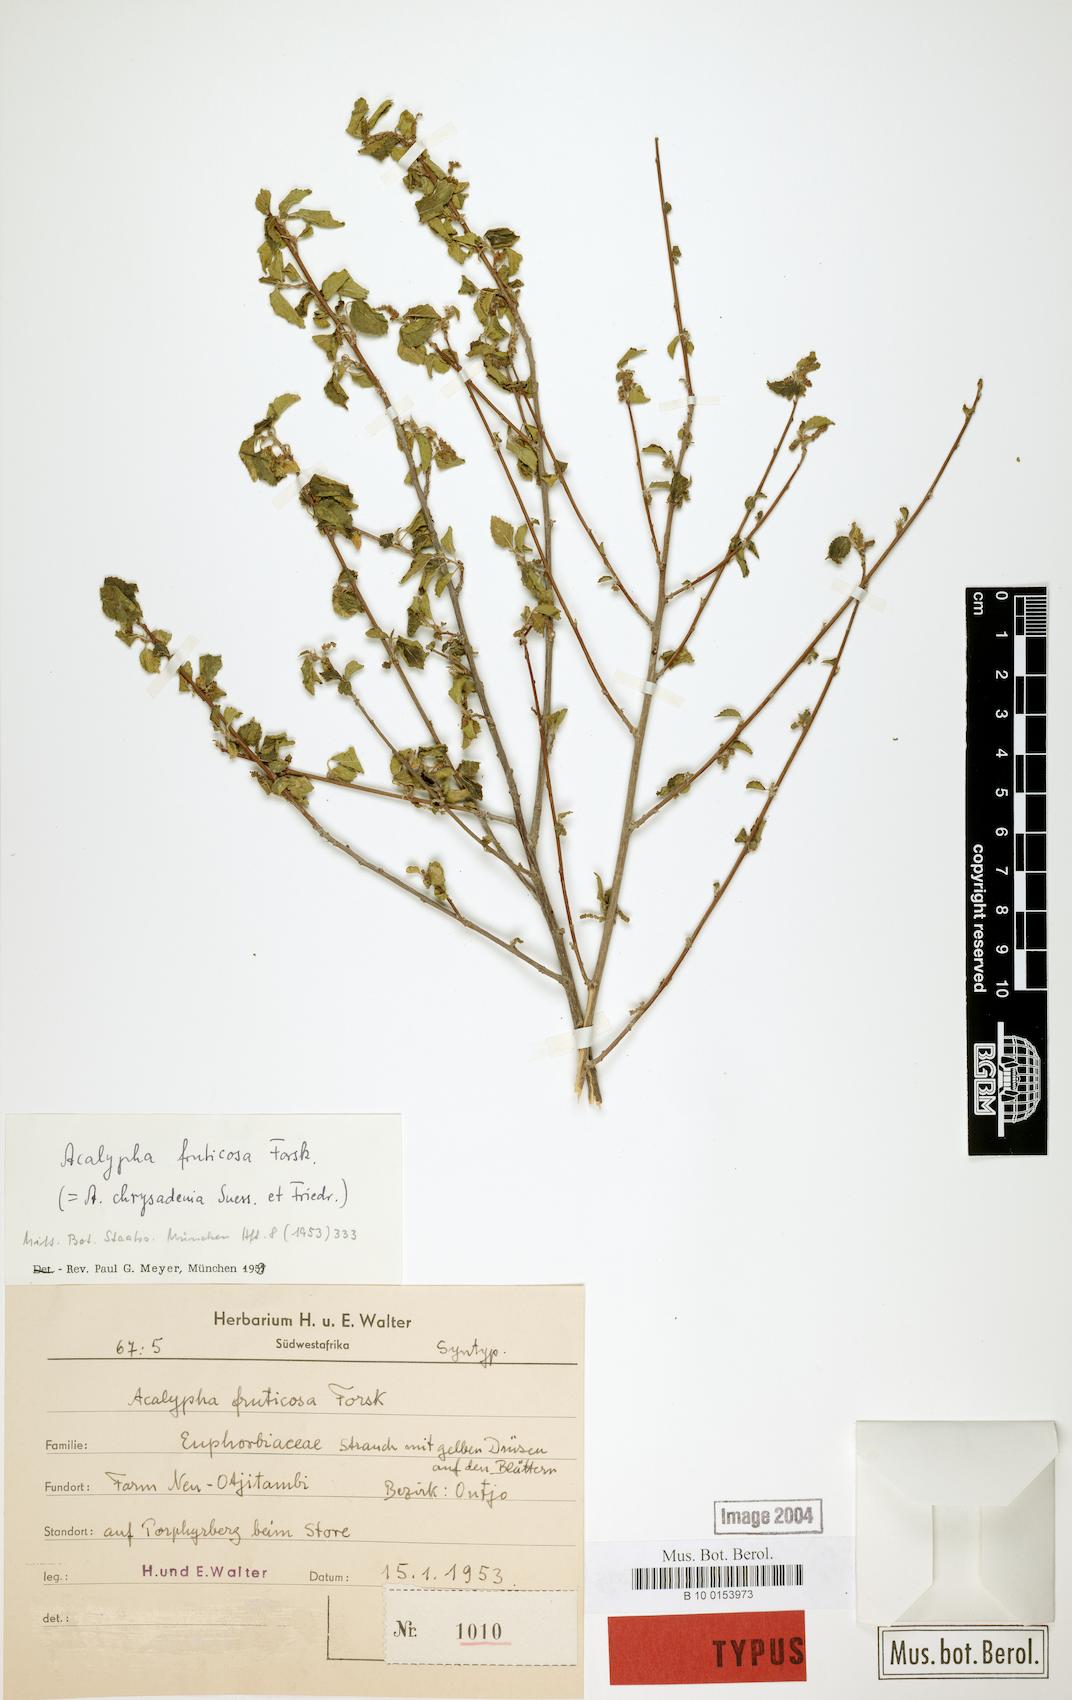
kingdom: Plantae
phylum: Tracheophyta
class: Magnoliopsida
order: Malpighiales
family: Euphorbiaceae
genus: Acalypha
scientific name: Acalypha fruticosa
